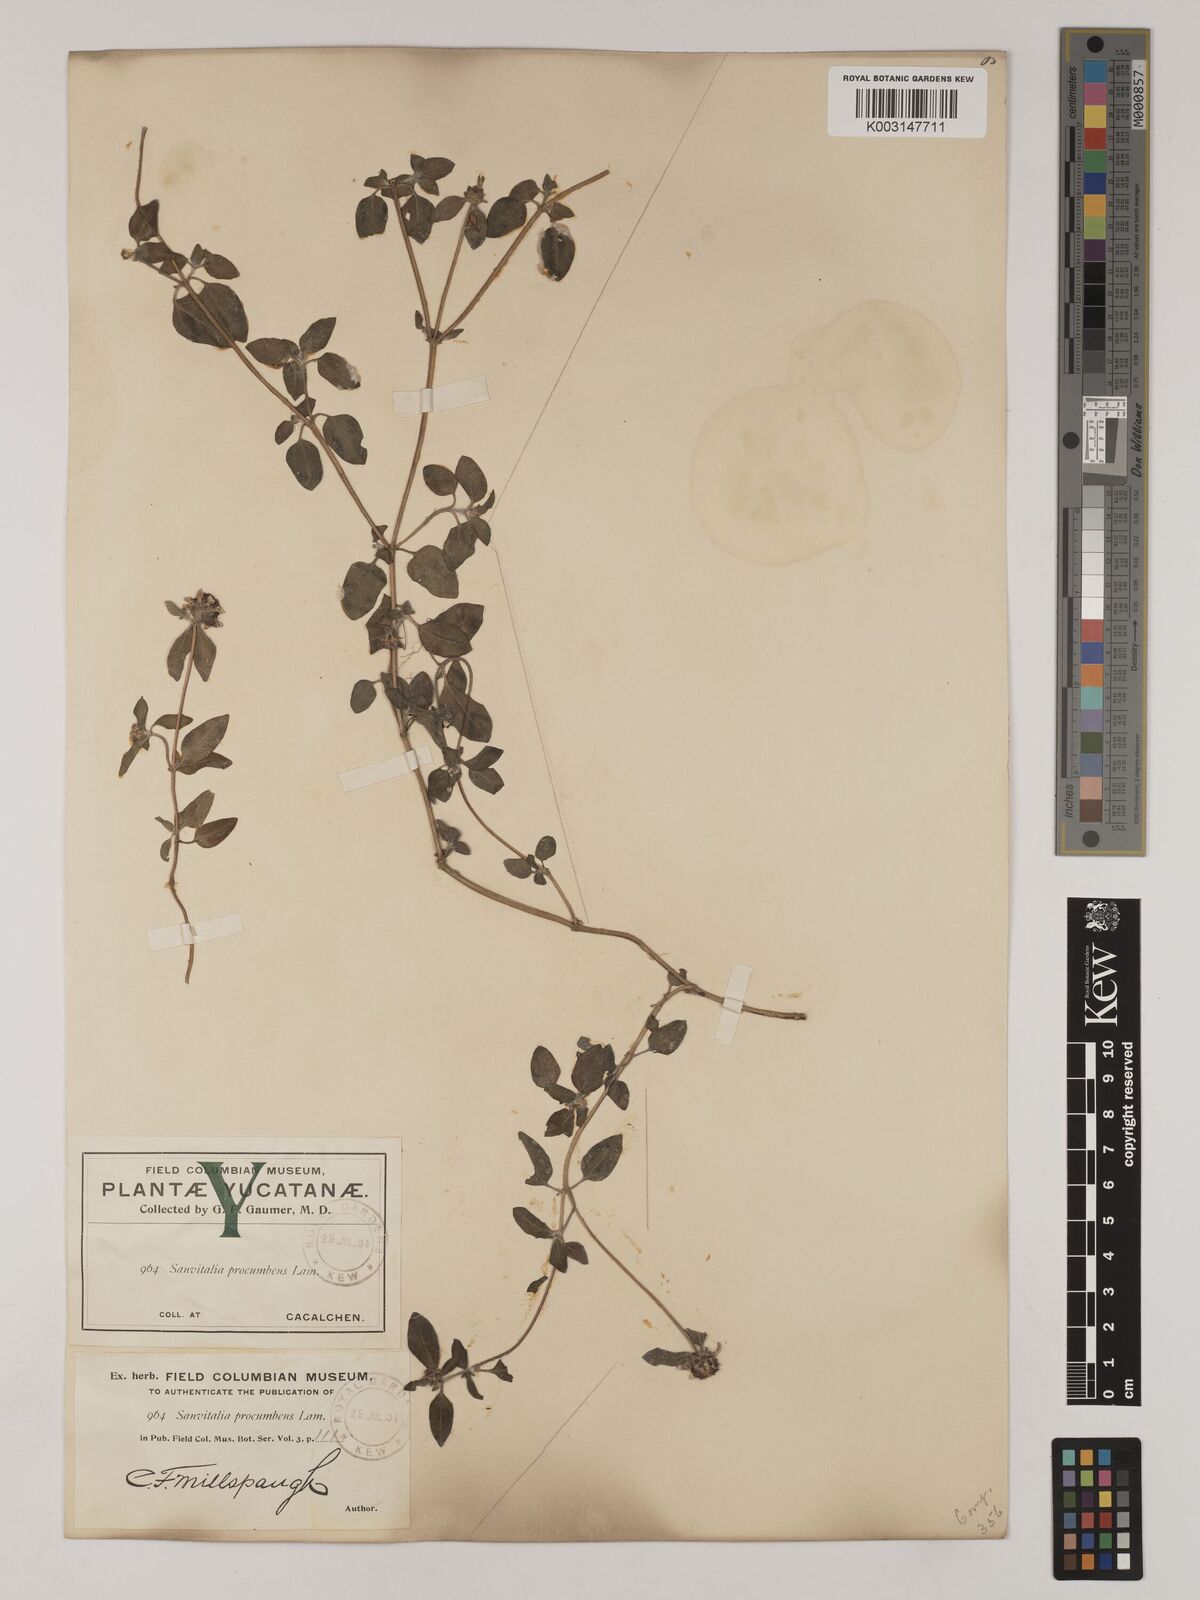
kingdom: Plantae
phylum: Tracheophyta
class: Magnoliopsida
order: Asterales
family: Asteraceae
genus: Sanvitalia
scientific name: Sanvitalia procumbens
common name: Mexican creeping zinnia
